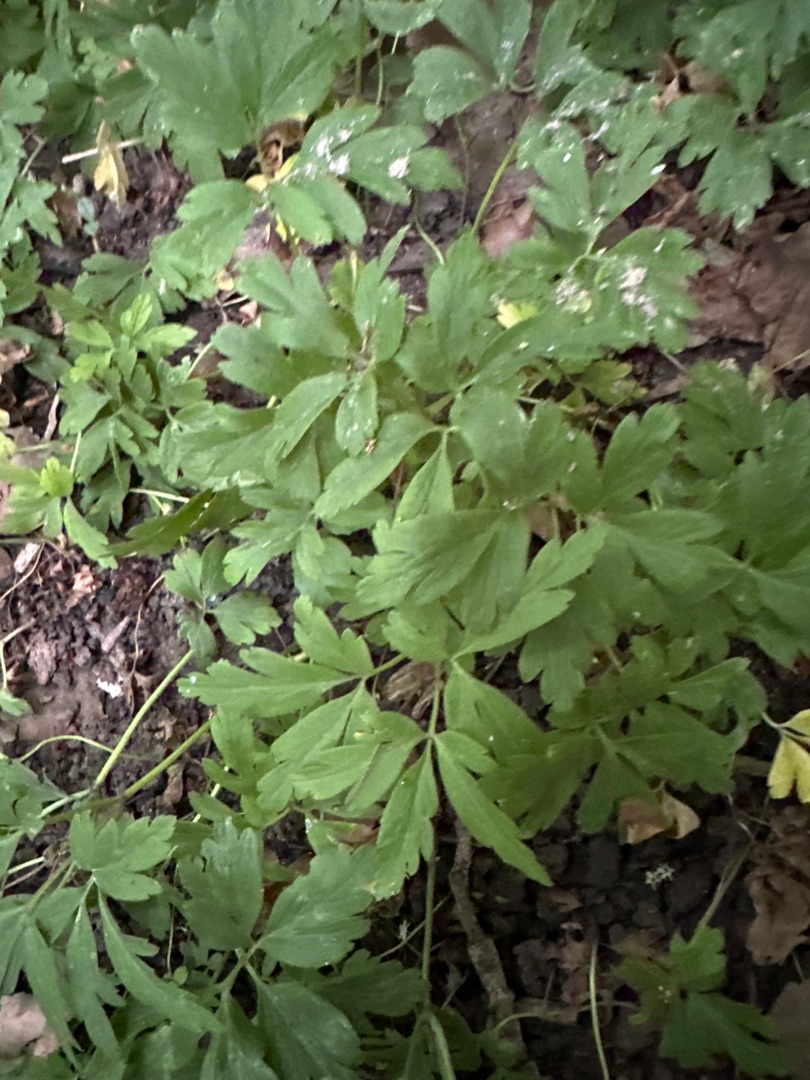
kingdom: Plantae
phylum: Tracheophyta
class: Magnoliopsida
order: Ranunculales
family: Ranunculaceae
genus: Anemone
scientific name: Anemone nemorosa
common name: Hvid anemone
